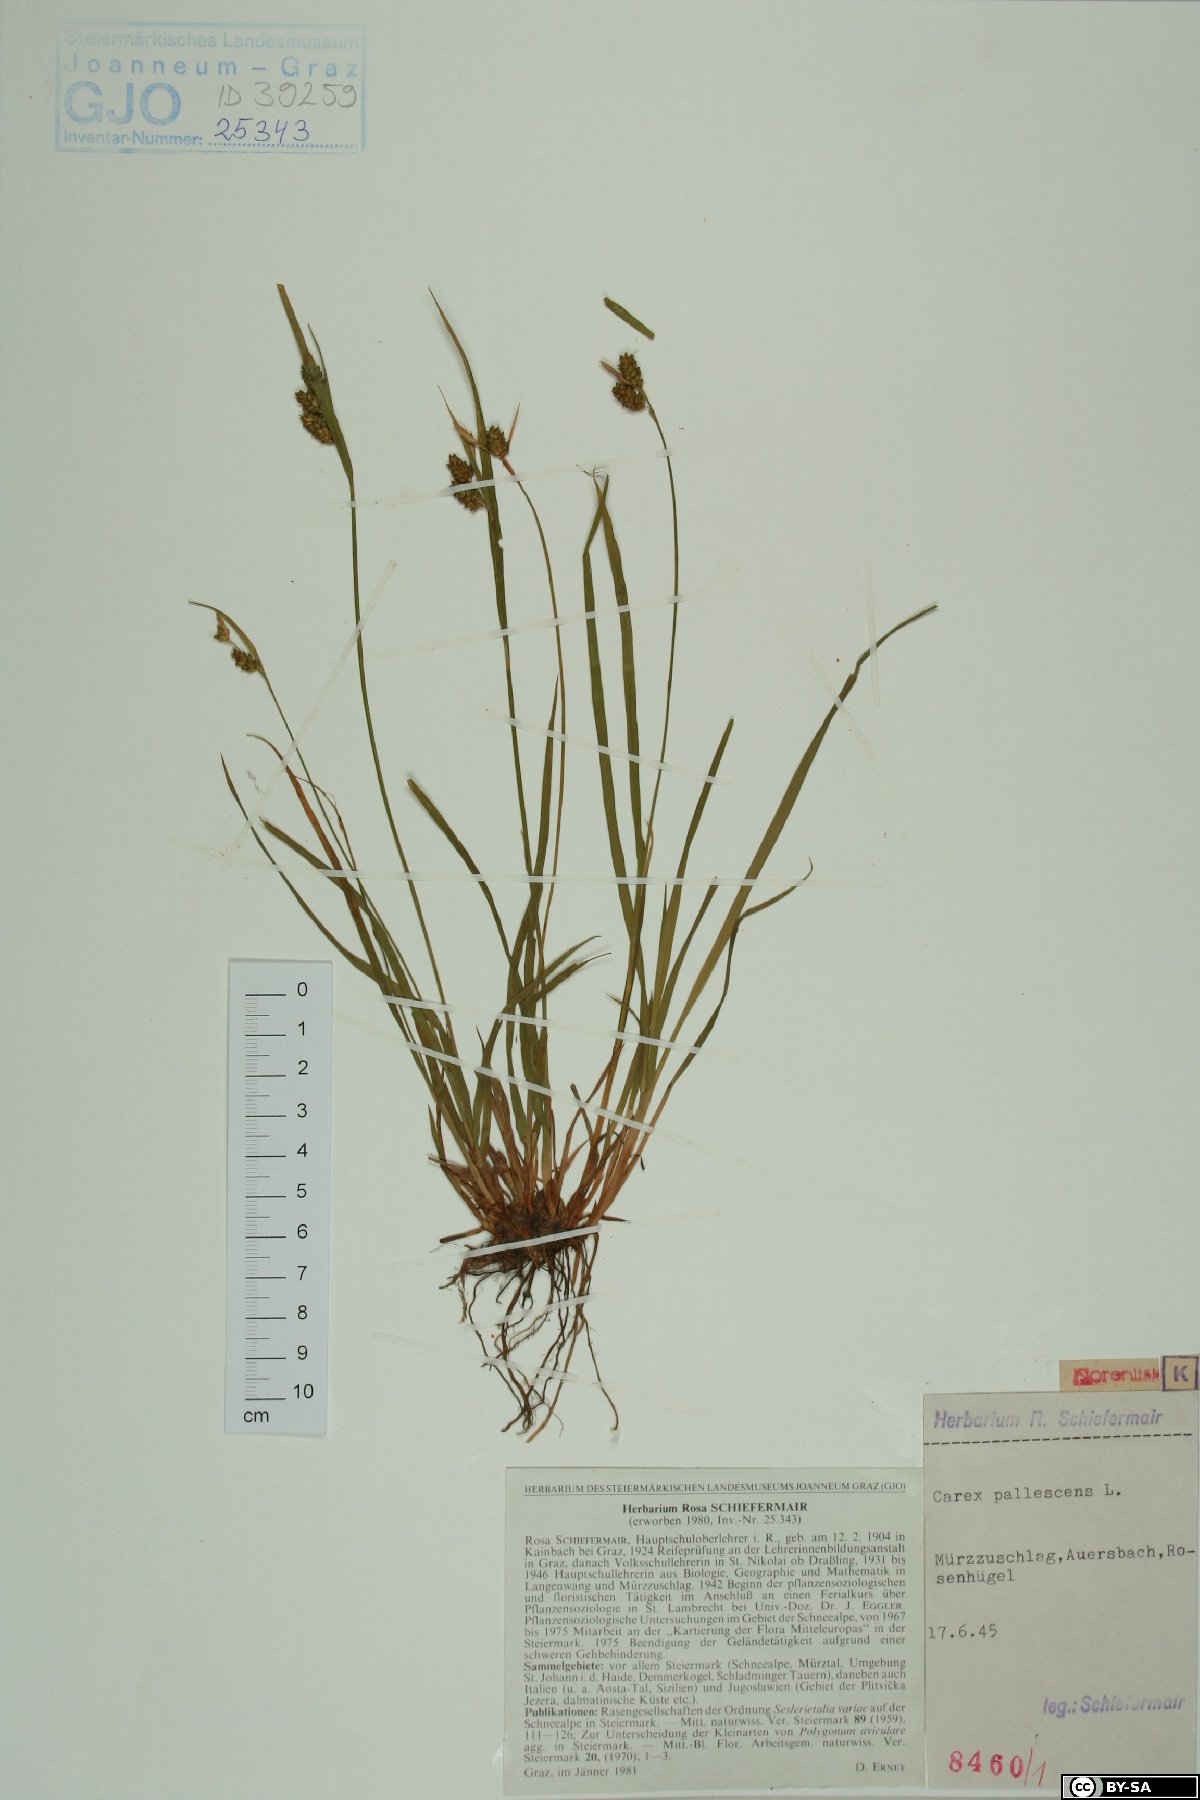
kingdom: Plantae
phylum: Tracheophyta
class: Liliopsida
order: Poales
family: Cyperaceae
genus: Carex
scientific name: Carex pallescens
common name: Pale sedge
